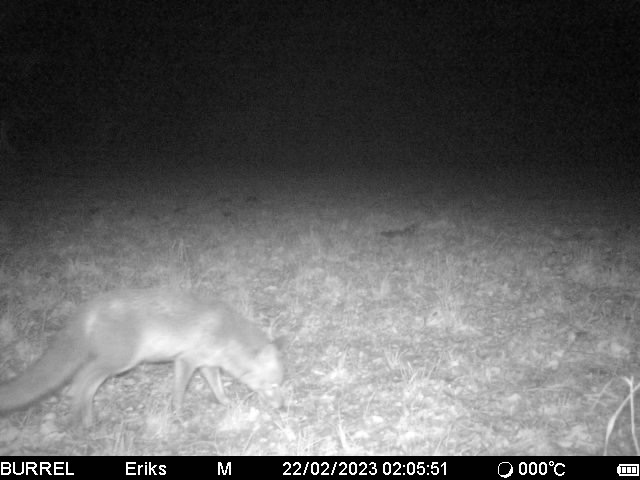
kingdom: Animalia
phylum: Chordata
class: Mammalia
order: Carnivora
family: Canidae
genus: Vulpes
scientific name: Vulpes vulpes
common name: Ræv
